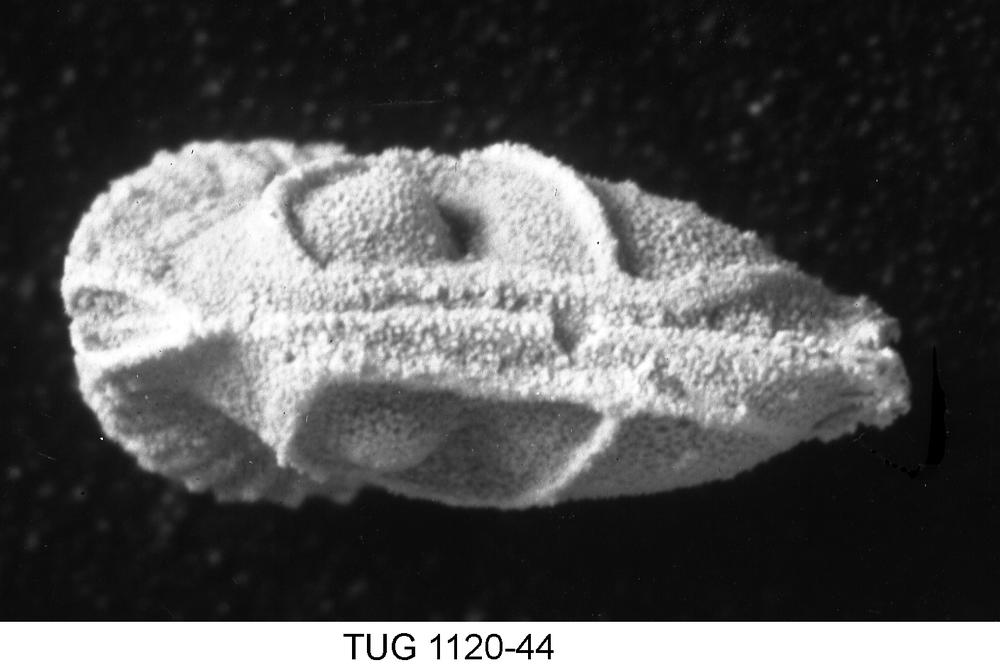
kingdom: Animalia
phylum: Arthropoda
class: Ostracoda
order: Palaeocopida
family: Tetradellidae
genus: Piretella
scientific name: Piretella
